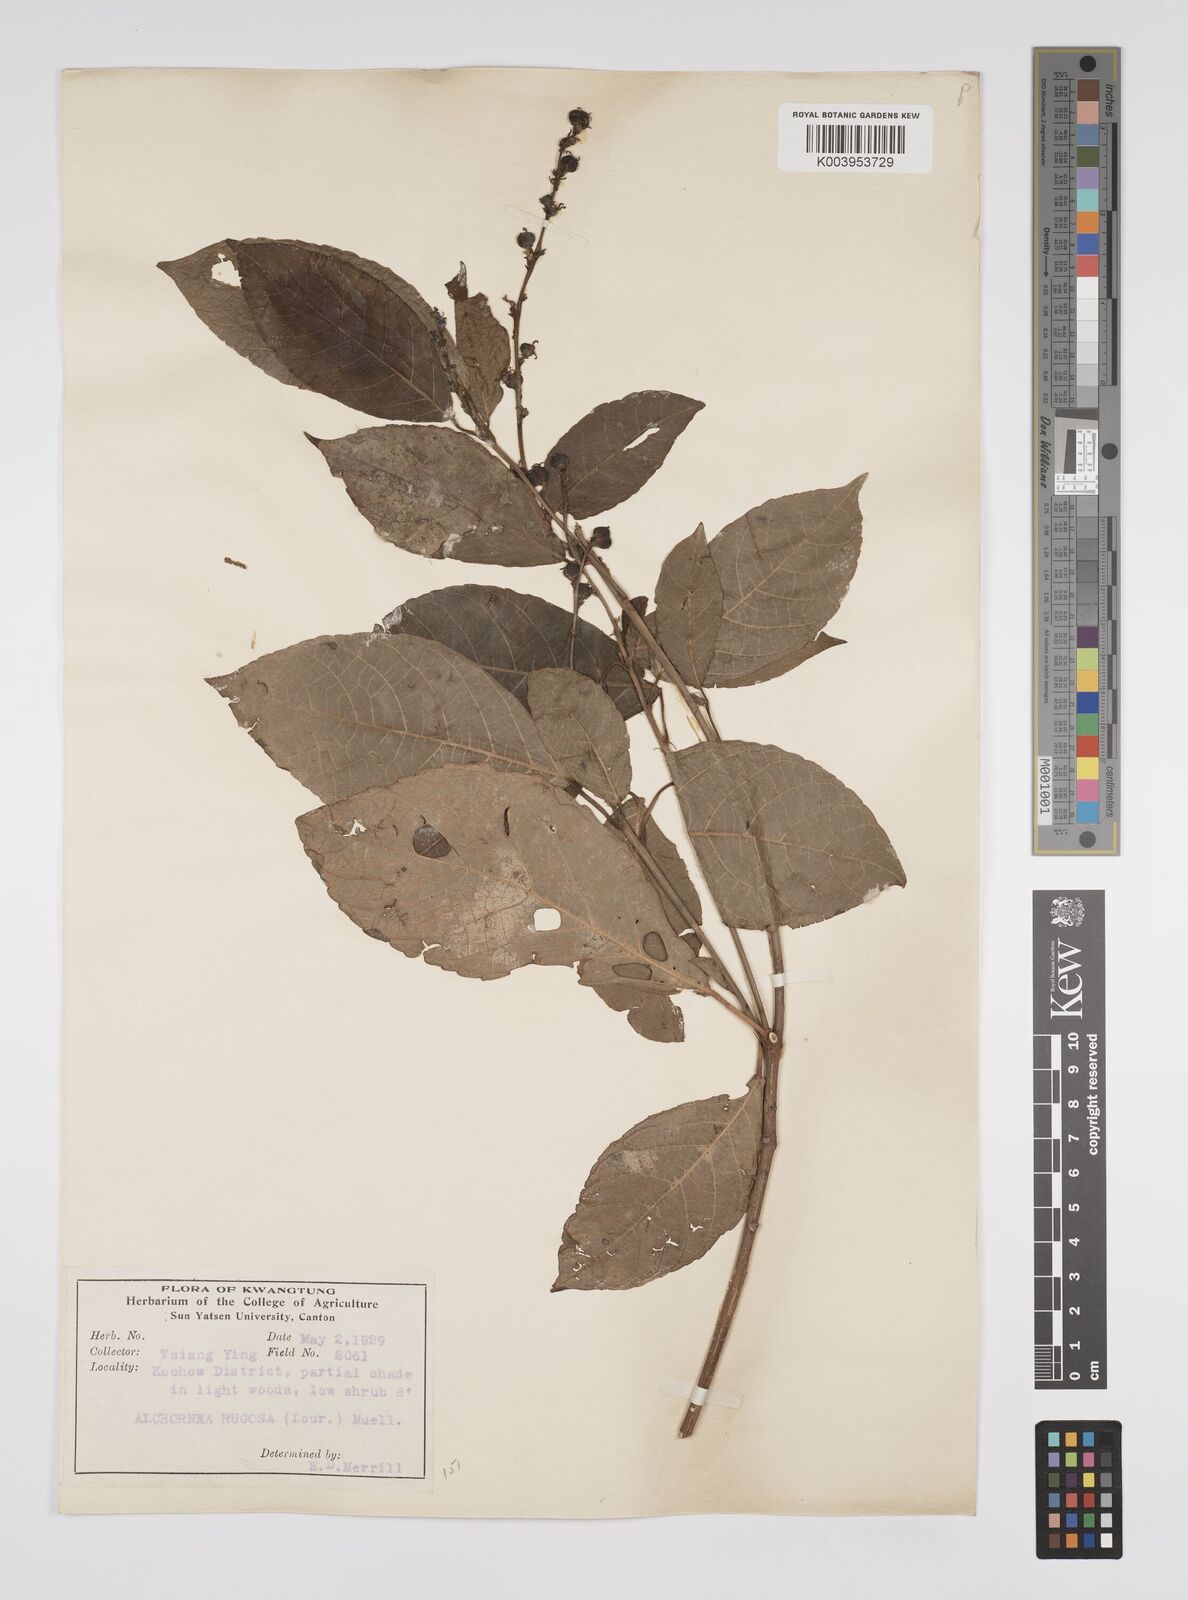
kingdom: Plantae
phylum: Tracheophyta
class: Magnoliopsida
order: Malpighiales
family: Euphorbiaceae
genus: Alchornea
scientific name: Alchornea rugosa
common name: Alchorntree
